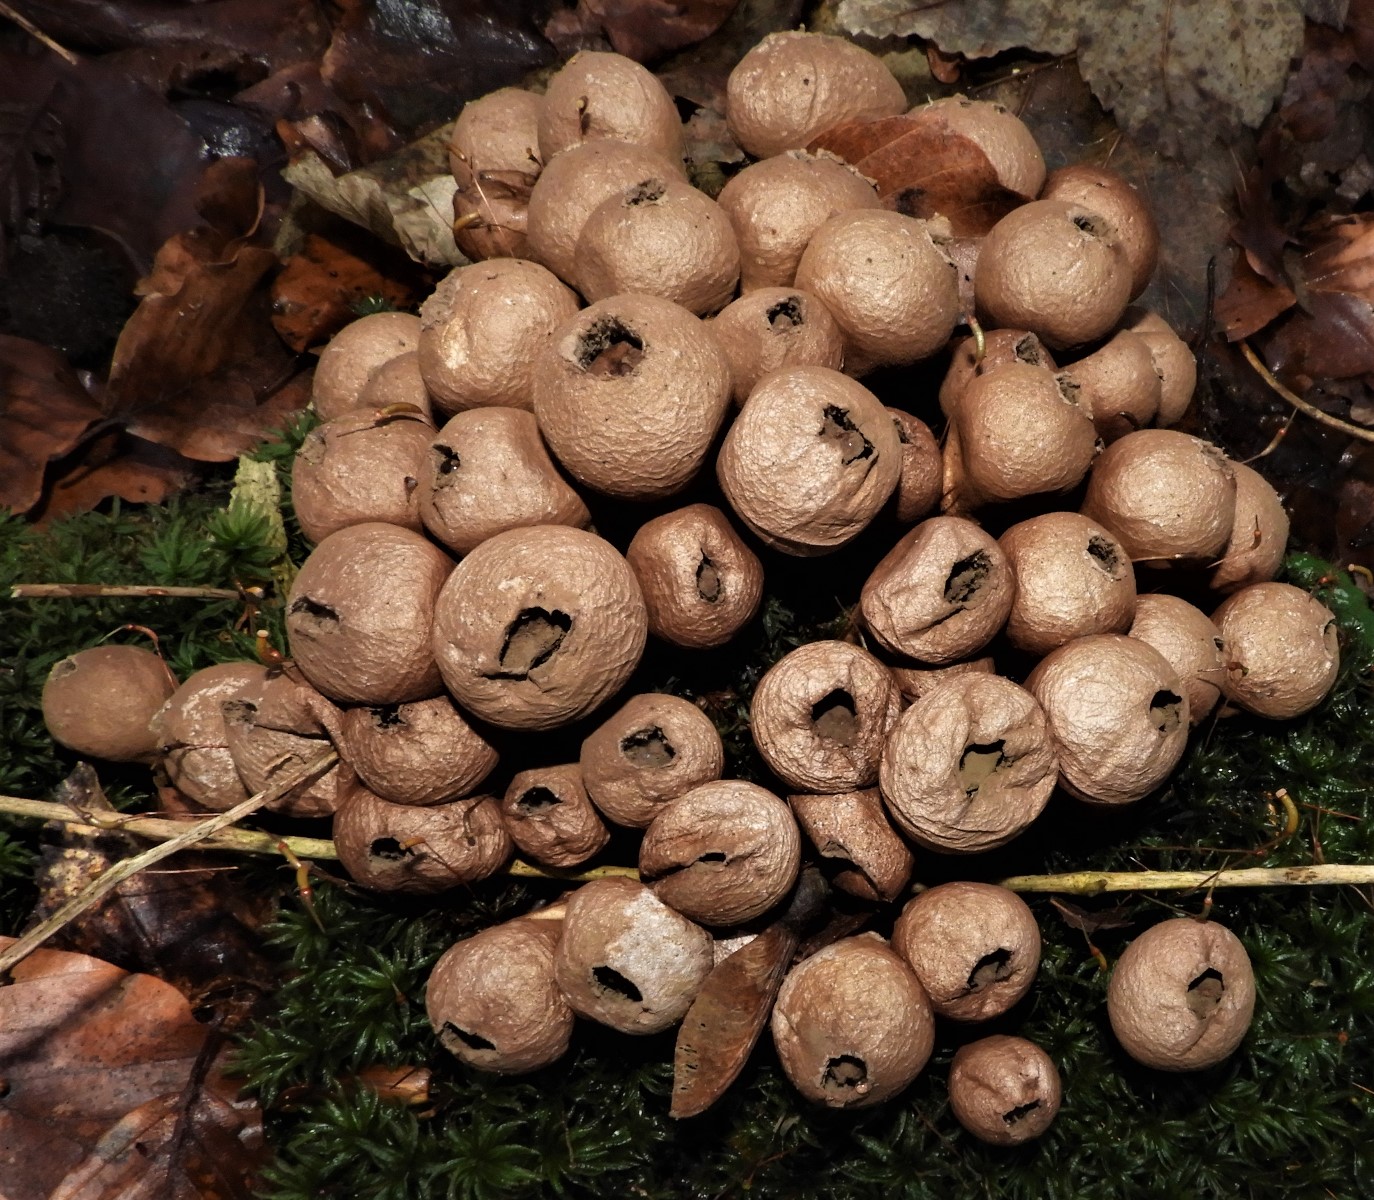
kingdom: Fungi
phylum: Basidiomycota
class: Agaricomycetes
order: Agaricales
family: Lycoperdaceae
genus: Apioperdon
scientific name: Apioperdon pyriforme
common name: pære-støvbold
